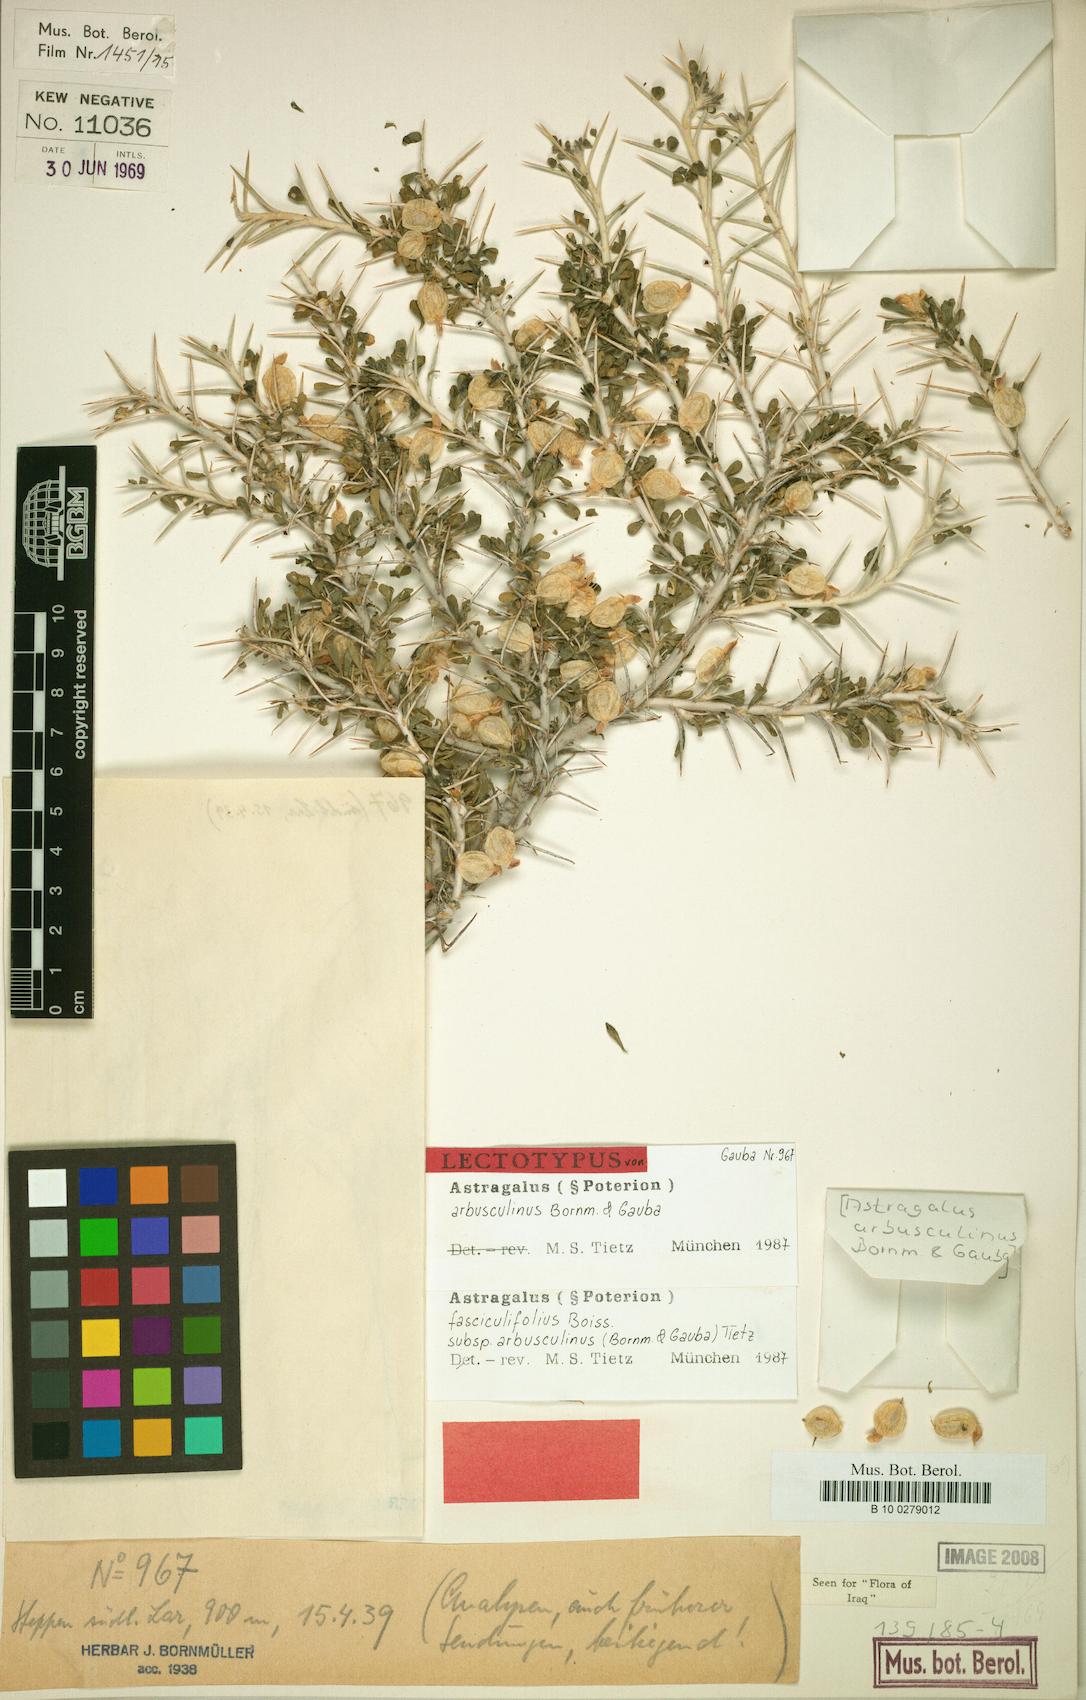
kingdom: Plantae
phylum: Tracheophyta
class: Magnoliopsida
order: Fabales
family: Fabaceae
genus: Astragalus
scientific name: Astragalus fasciculifolius
